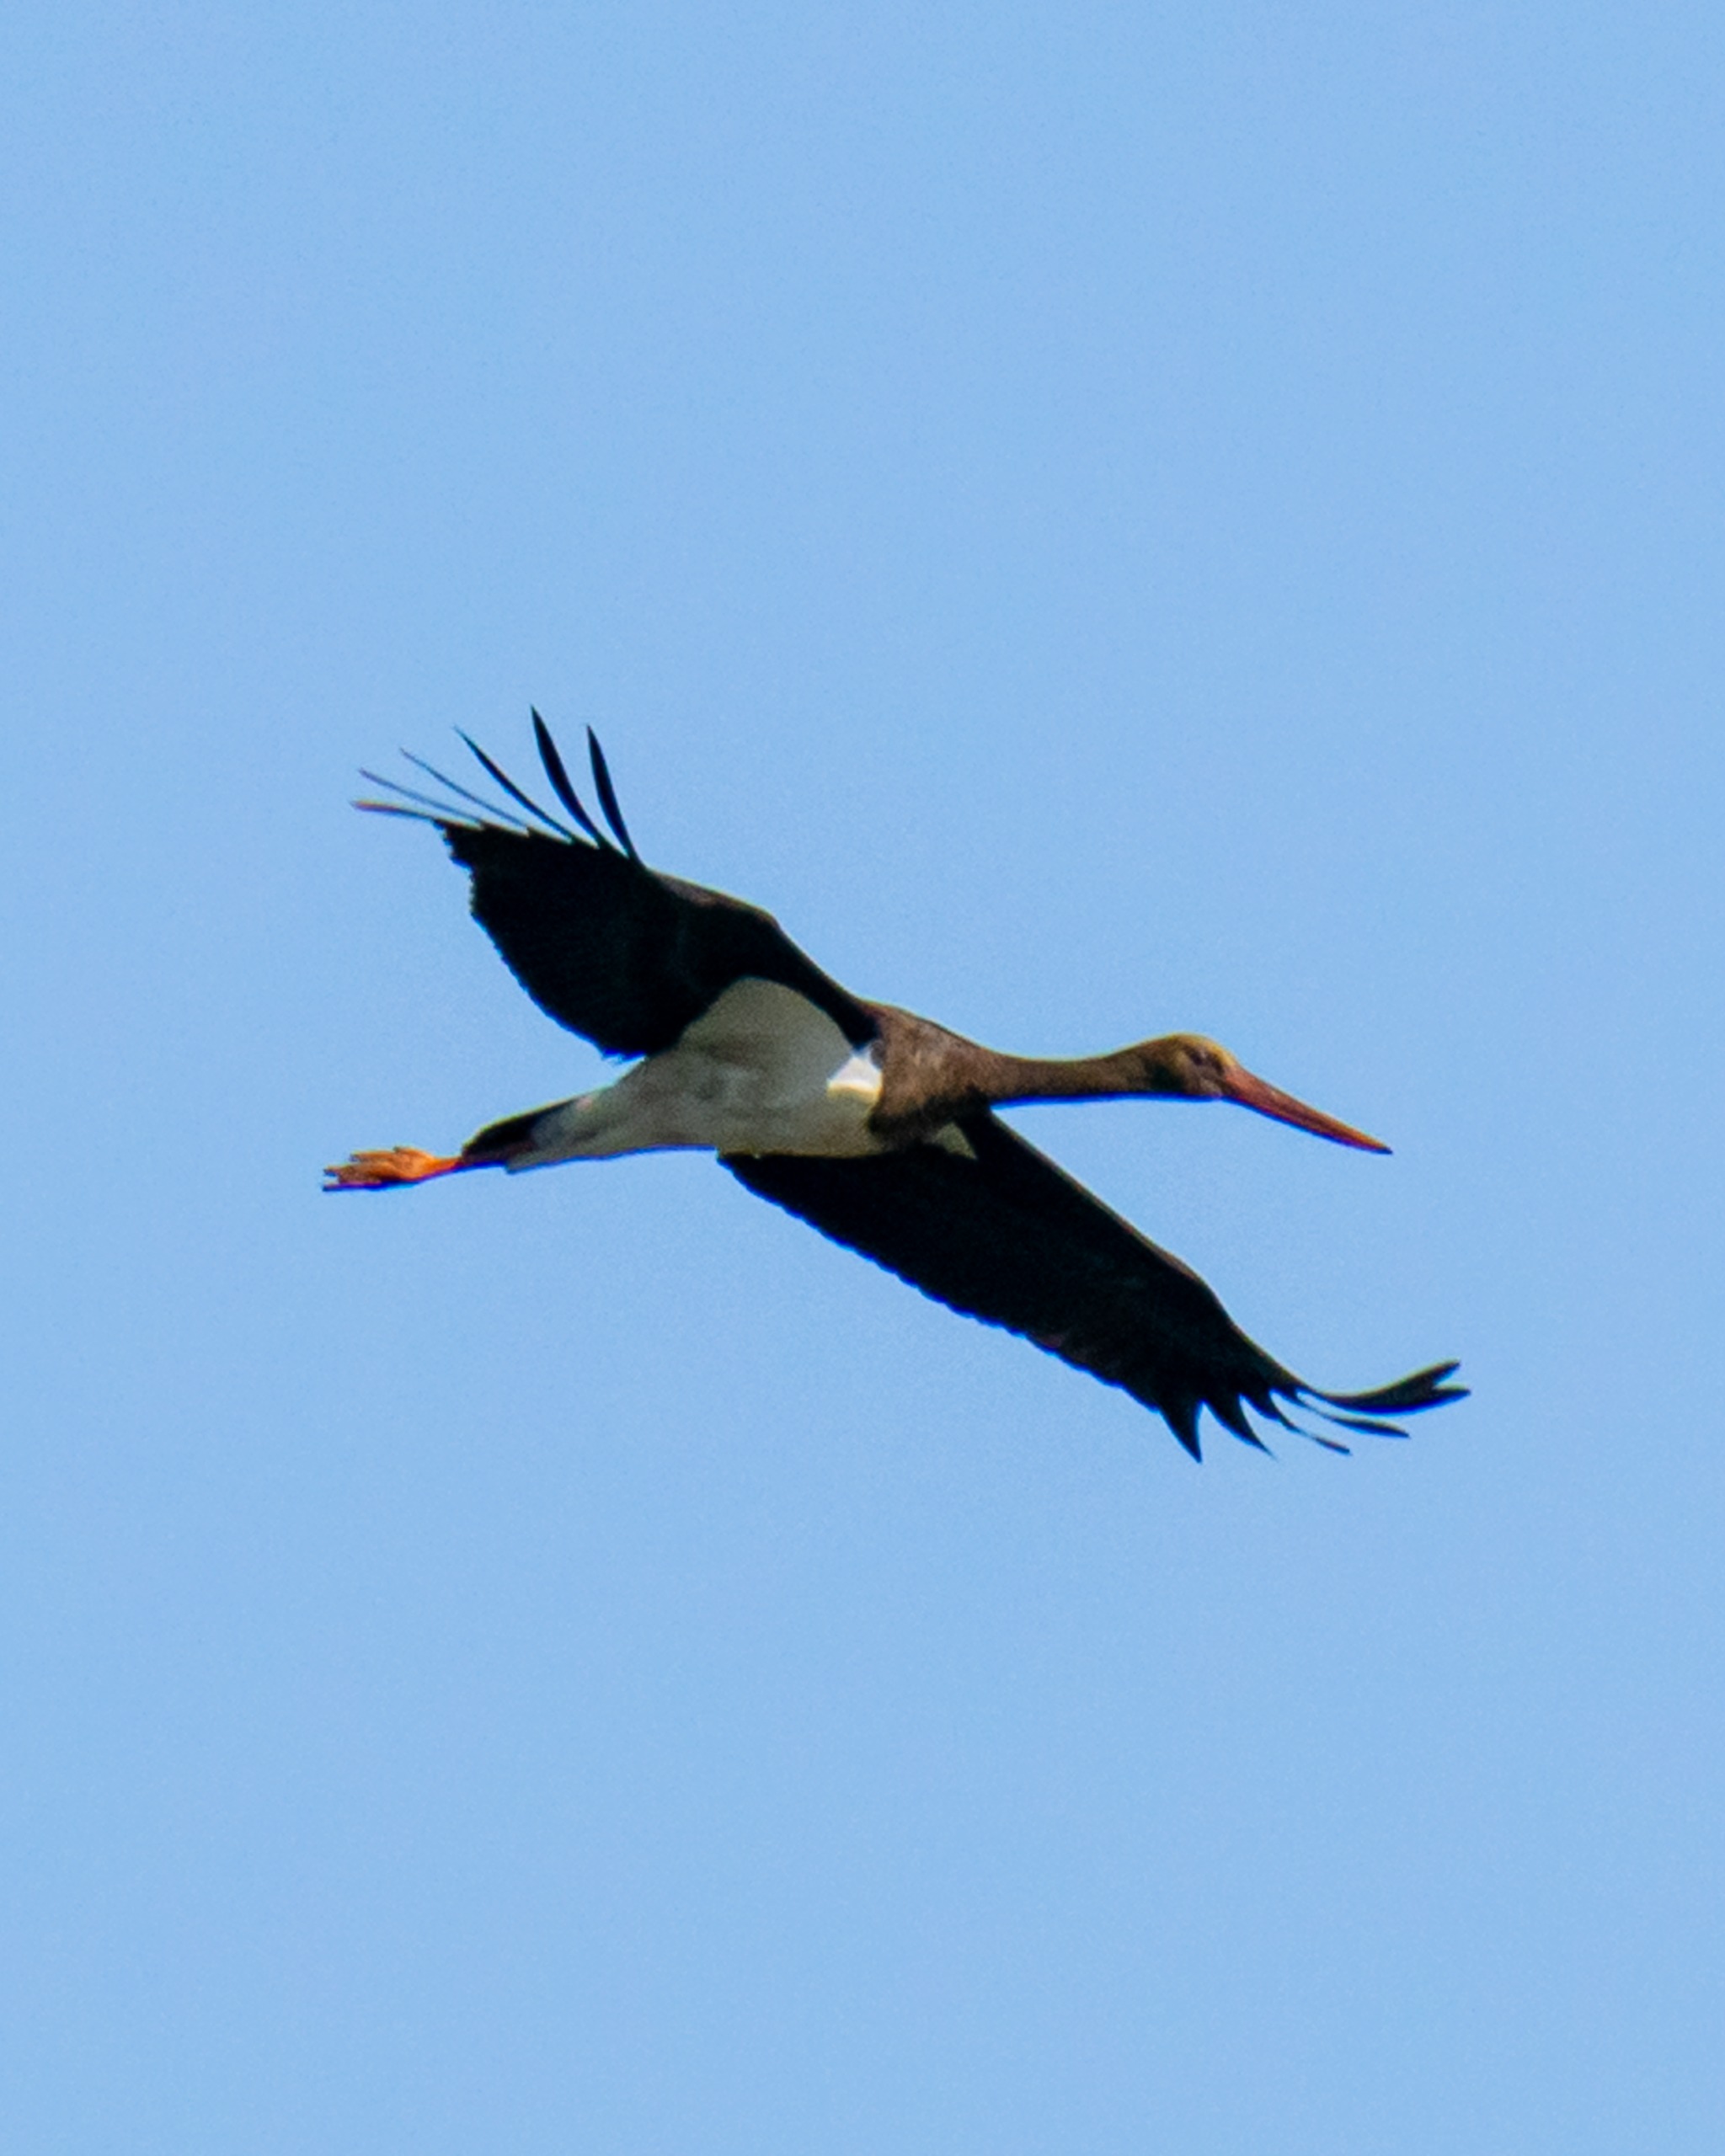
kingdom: Animalia
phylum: Chordata
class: Aves
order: Ciconiiformes
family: Ciconiidae
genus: Ciconia
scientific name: Ciconia nigra
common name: Sort stork
